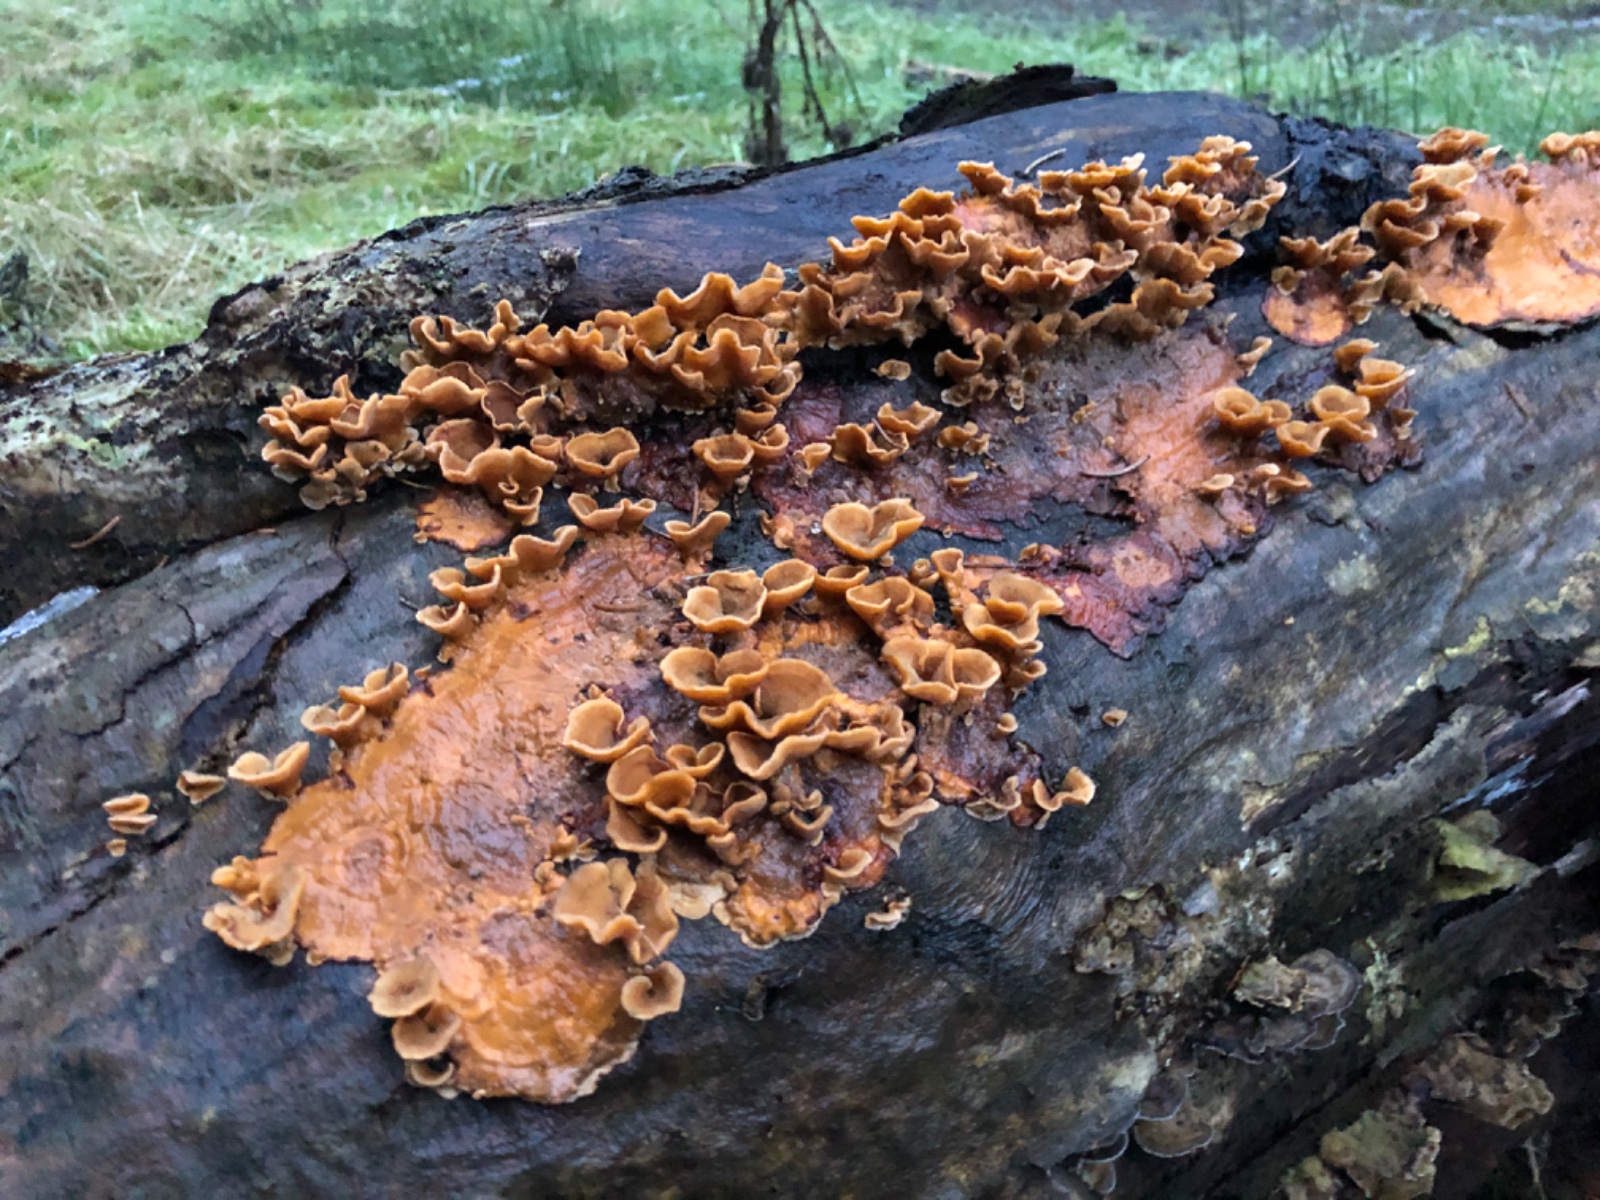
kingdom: Fungi
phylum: Basidiomycota
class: Agaricomycetes
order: Russulales
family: Stereaceae
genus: Stereum
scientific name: Stereum hirsutum
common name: håret lædersvamp
